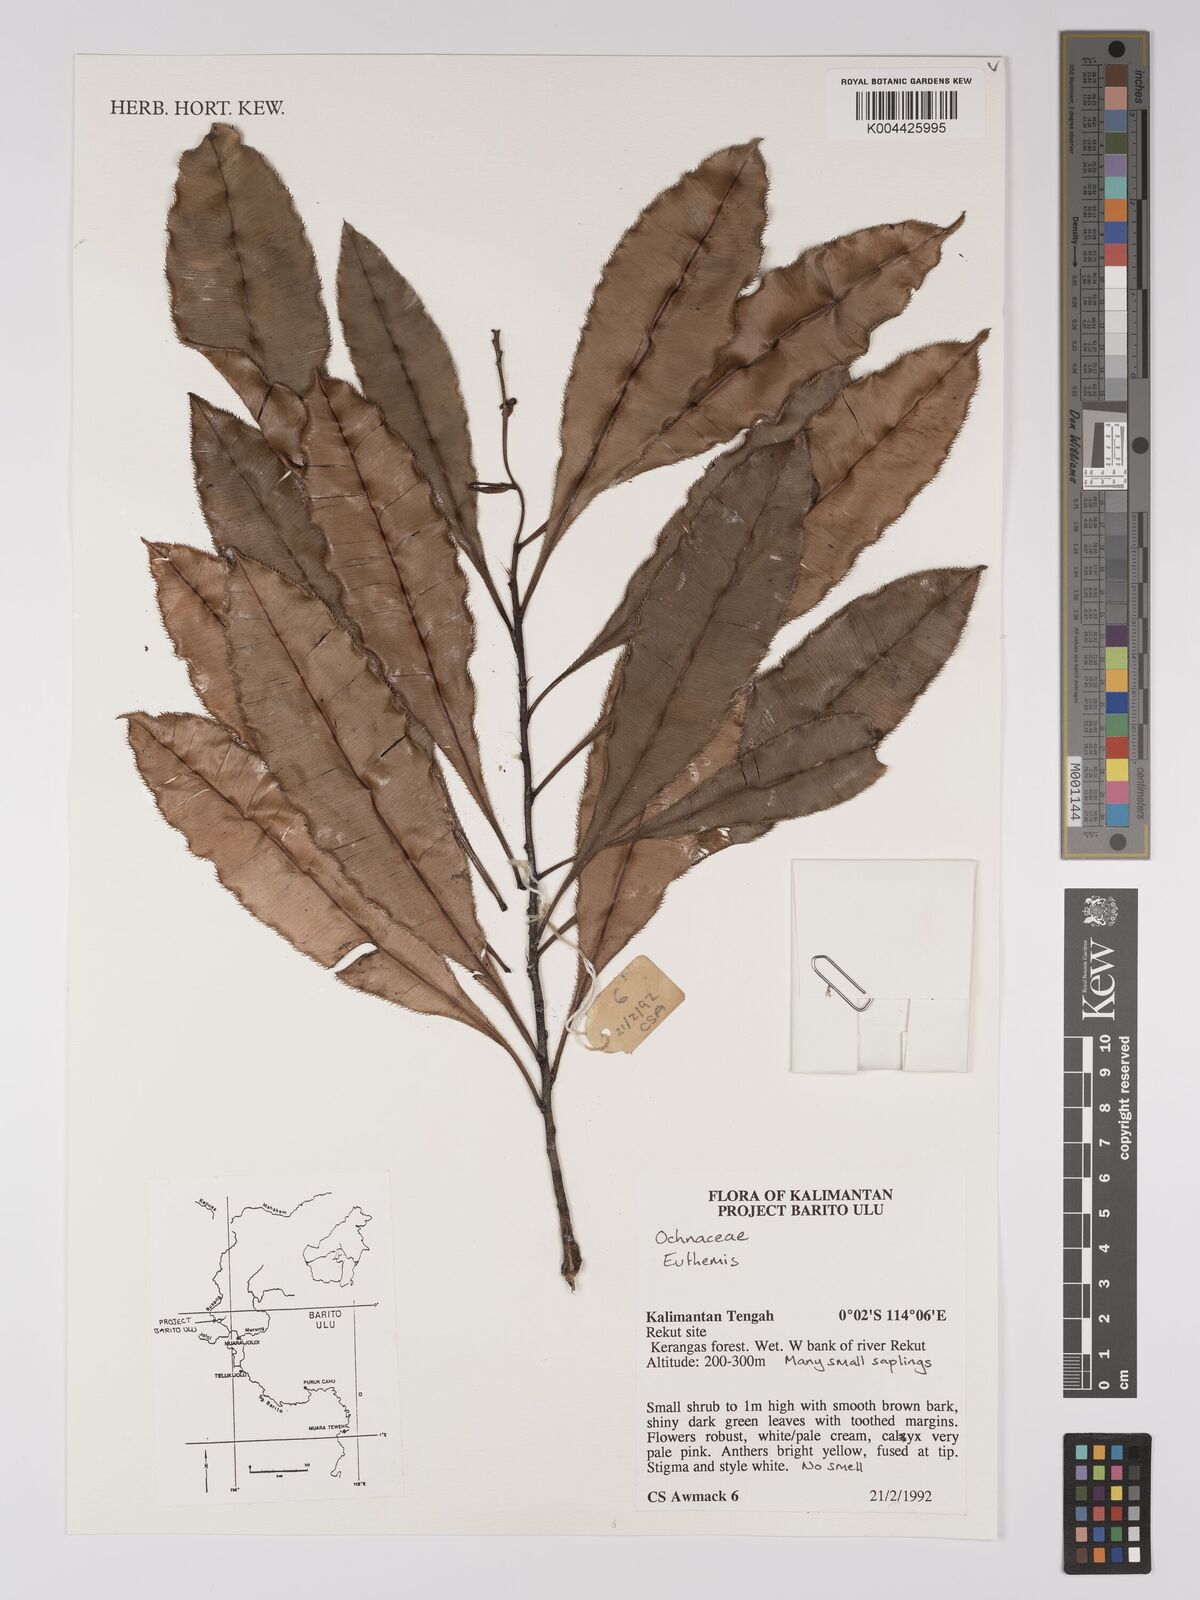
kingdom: Plantae
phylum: Tracheophyta
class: Magnoliopsida
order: Malpighiales
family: Ochnaceae
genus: Euthemis
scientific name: Euthemis
